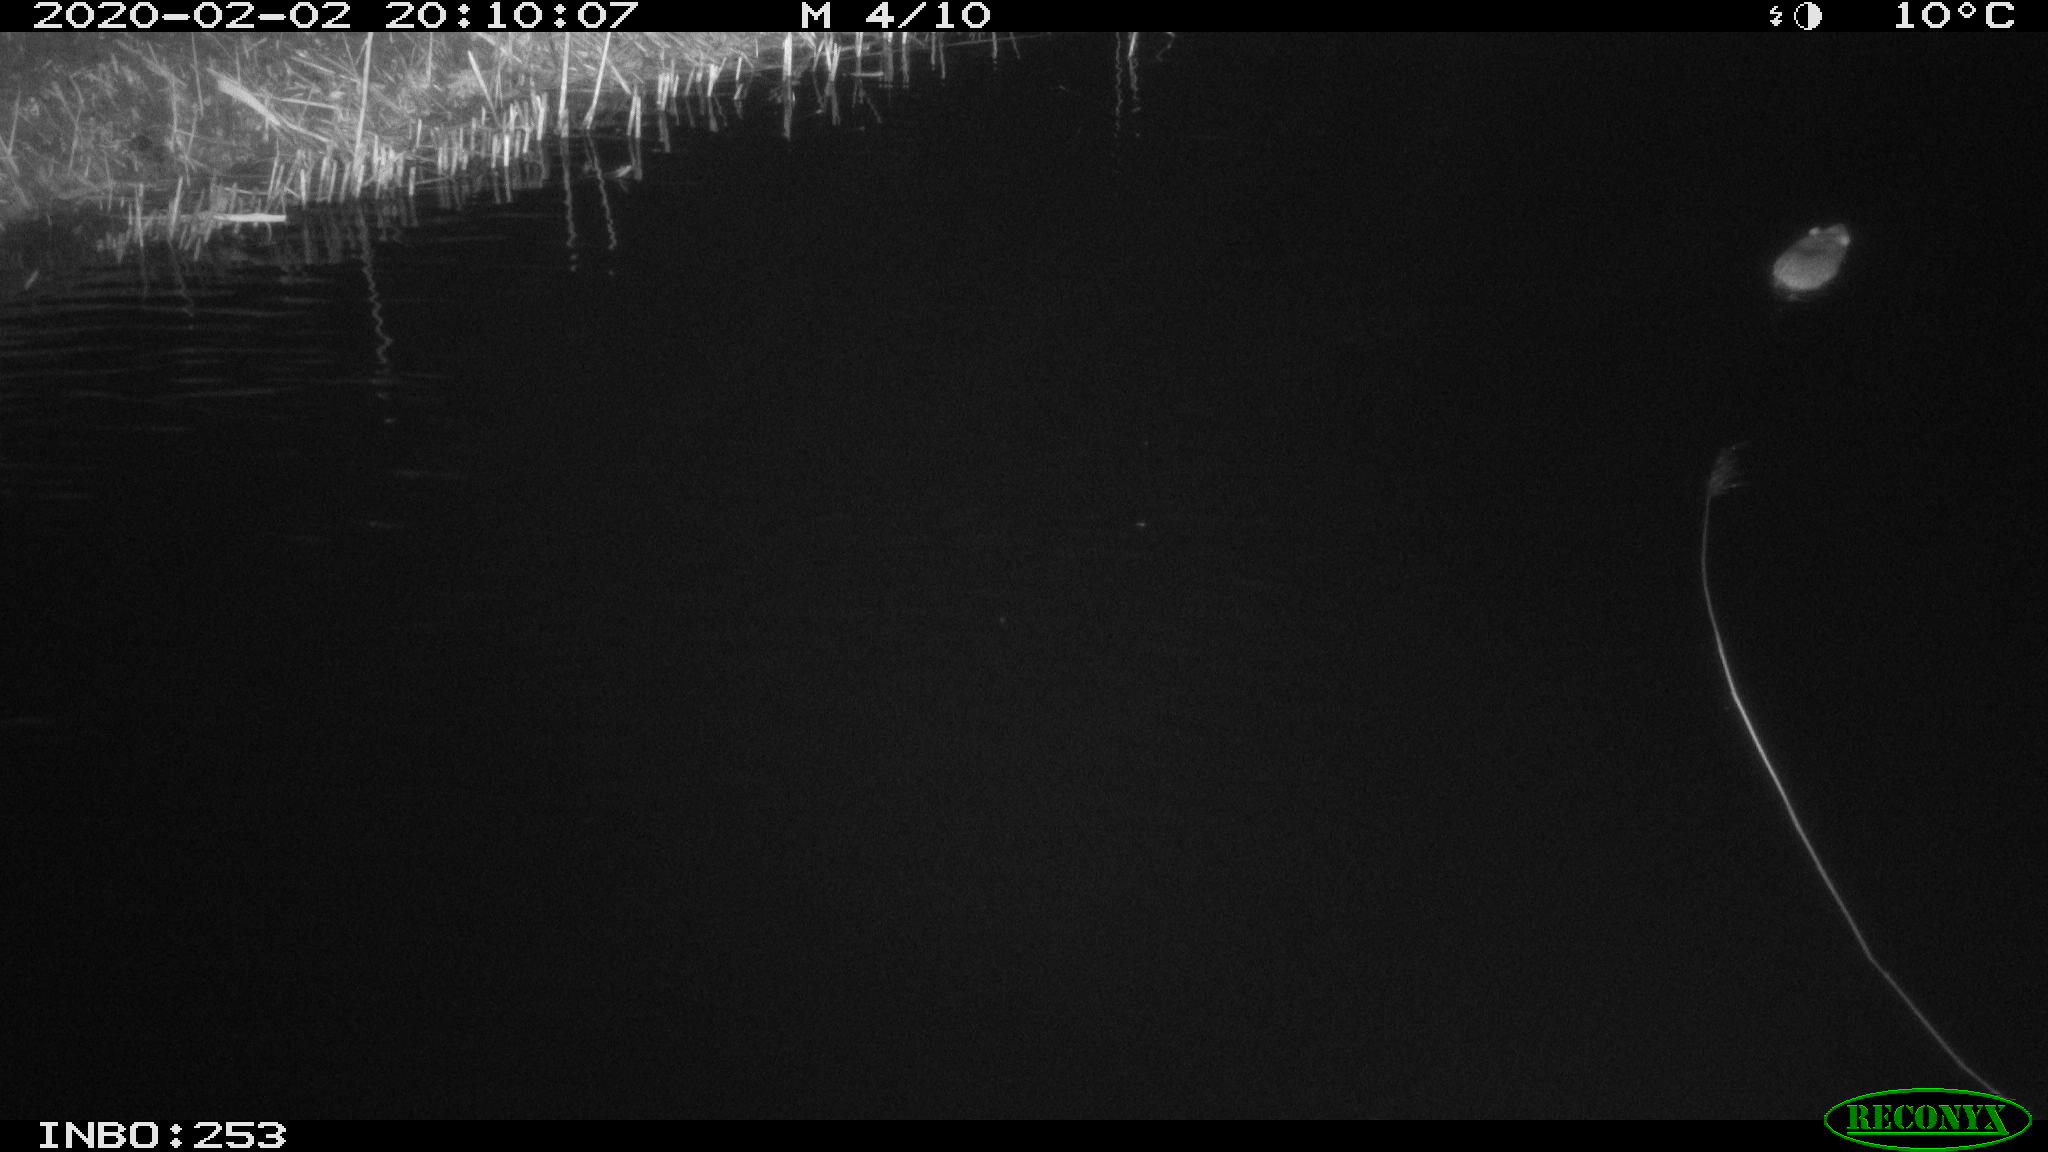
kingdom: Animalia
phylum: Chordata
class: Mammalia
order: Rodentia
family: Muridae
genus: Rattus
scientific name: Rattus norvegicus
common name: Brown rat
